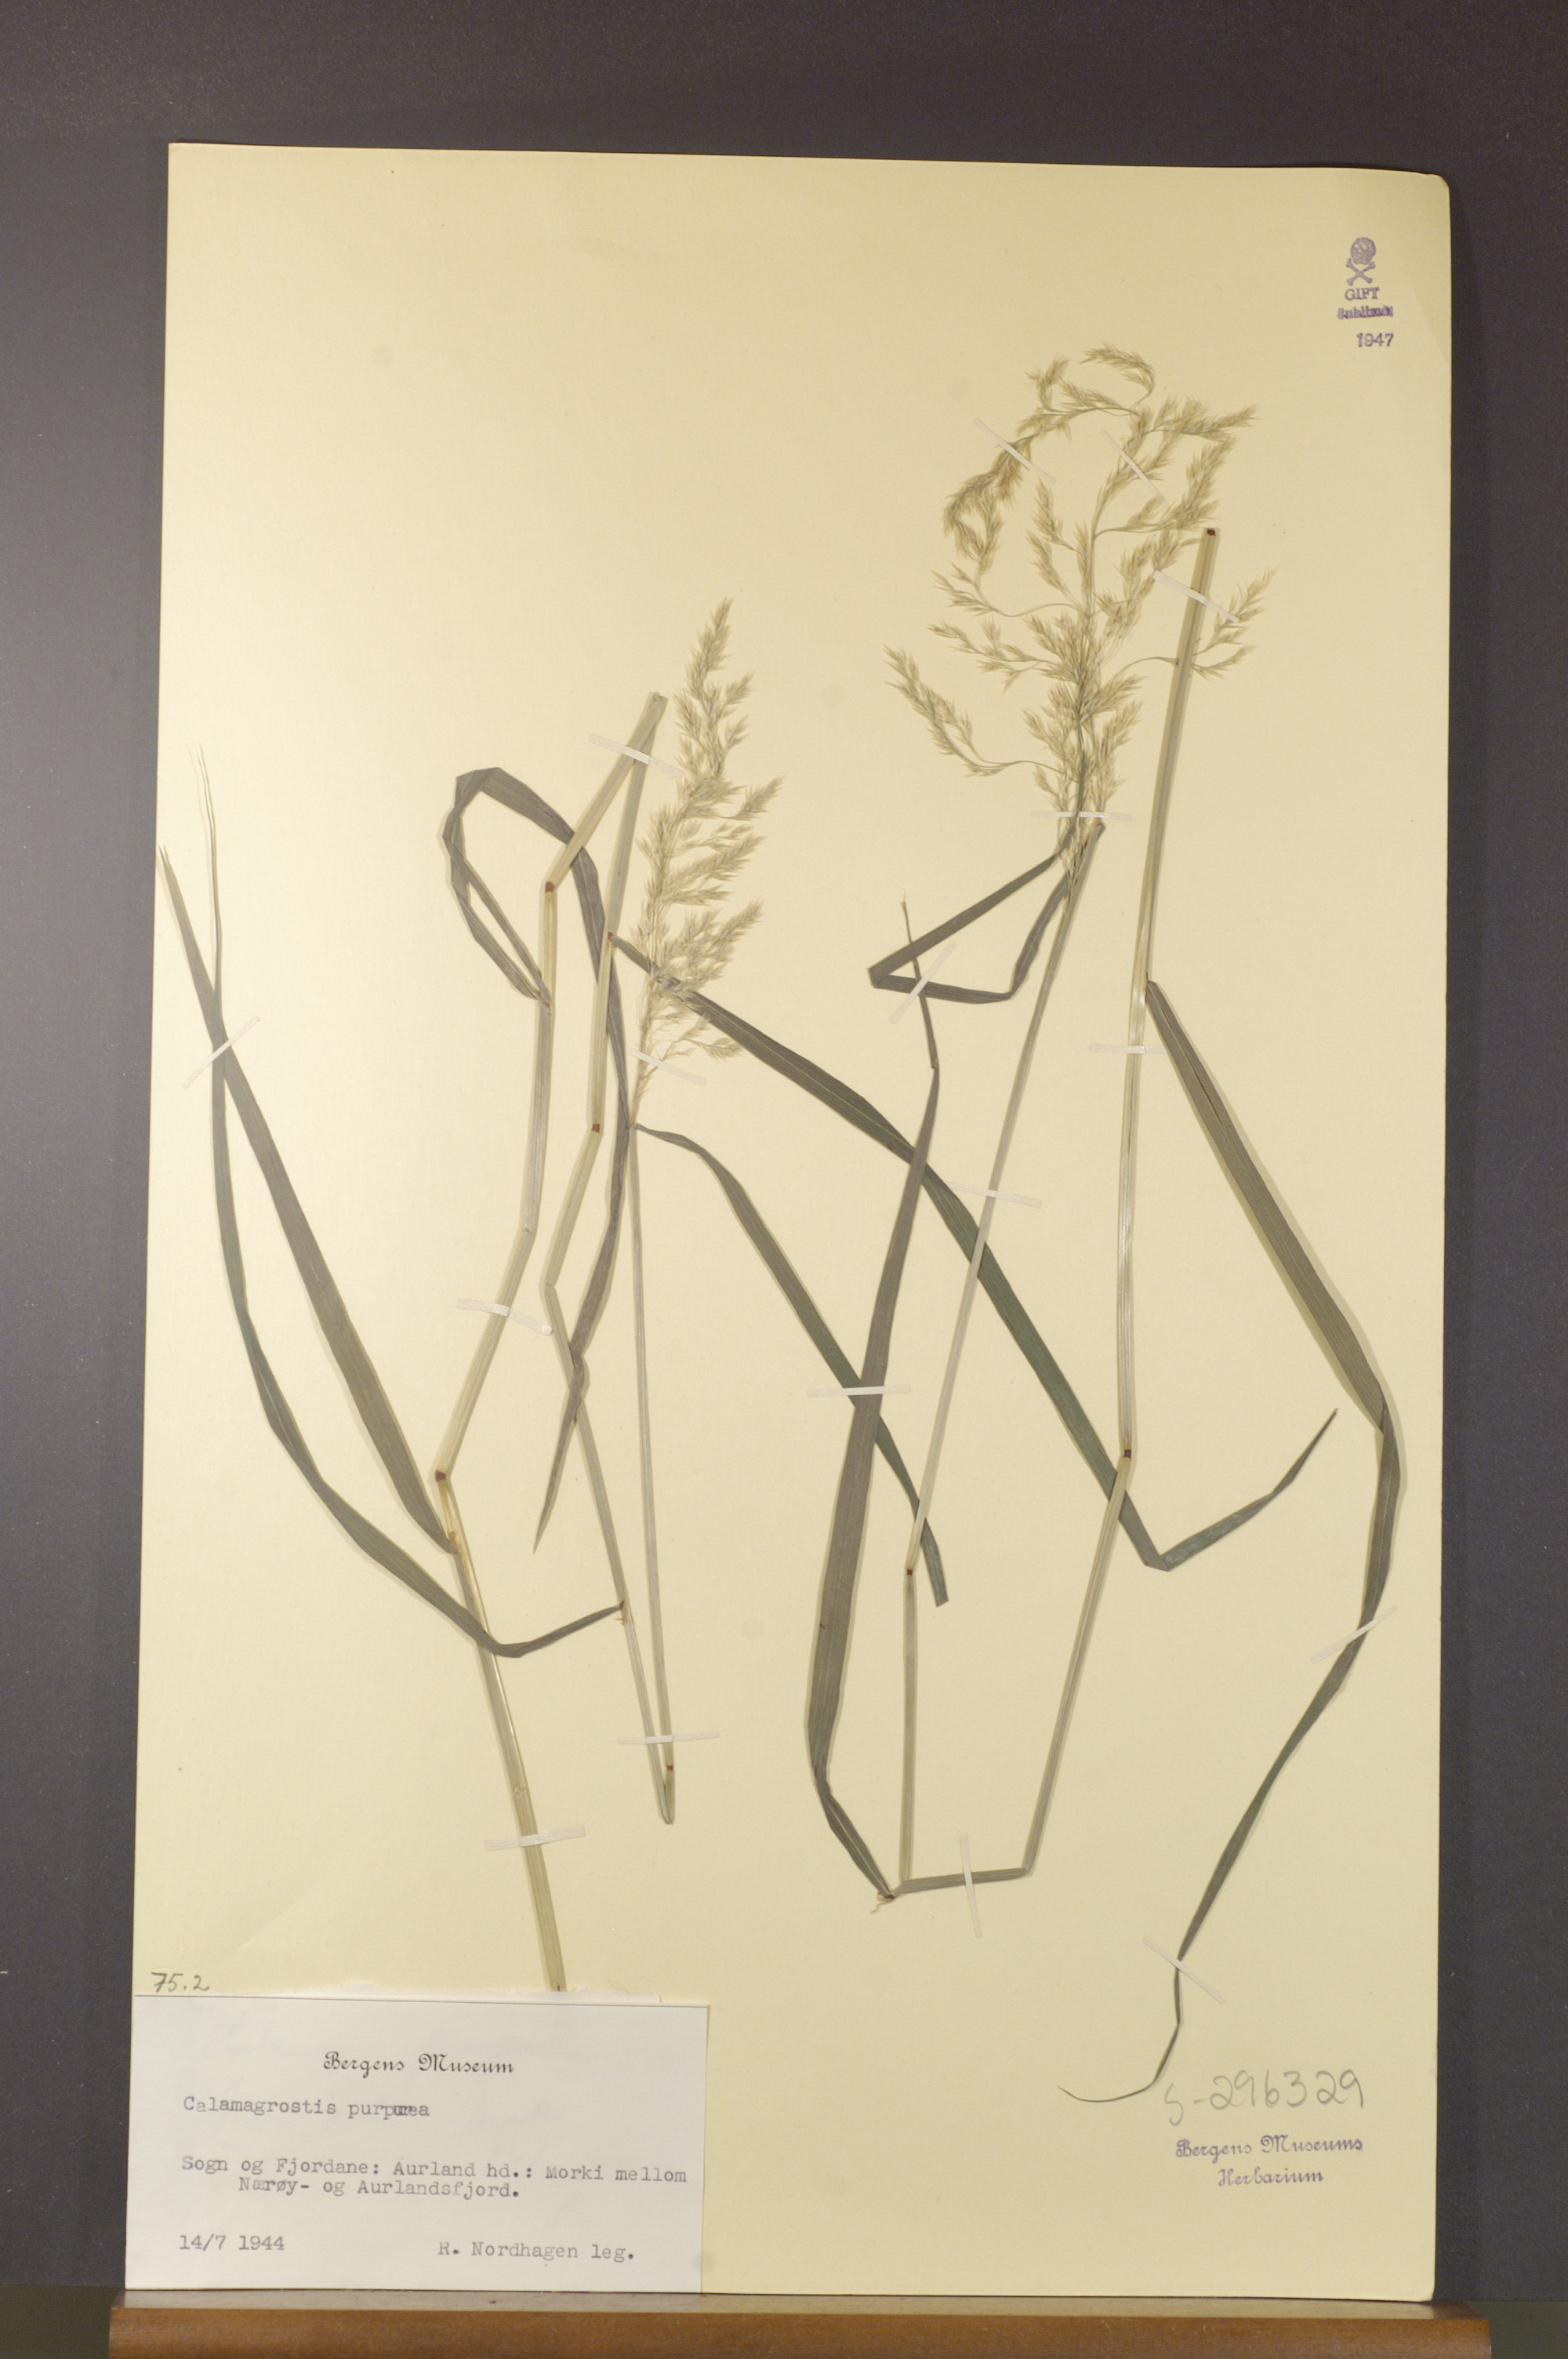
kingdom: Plantae
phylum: Tracheophyta
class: Liliopsida
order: Poales
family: Poaceae
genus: Calamagrostis
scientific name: Calamagrostis purpurea
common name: Scandinavian small-reed
